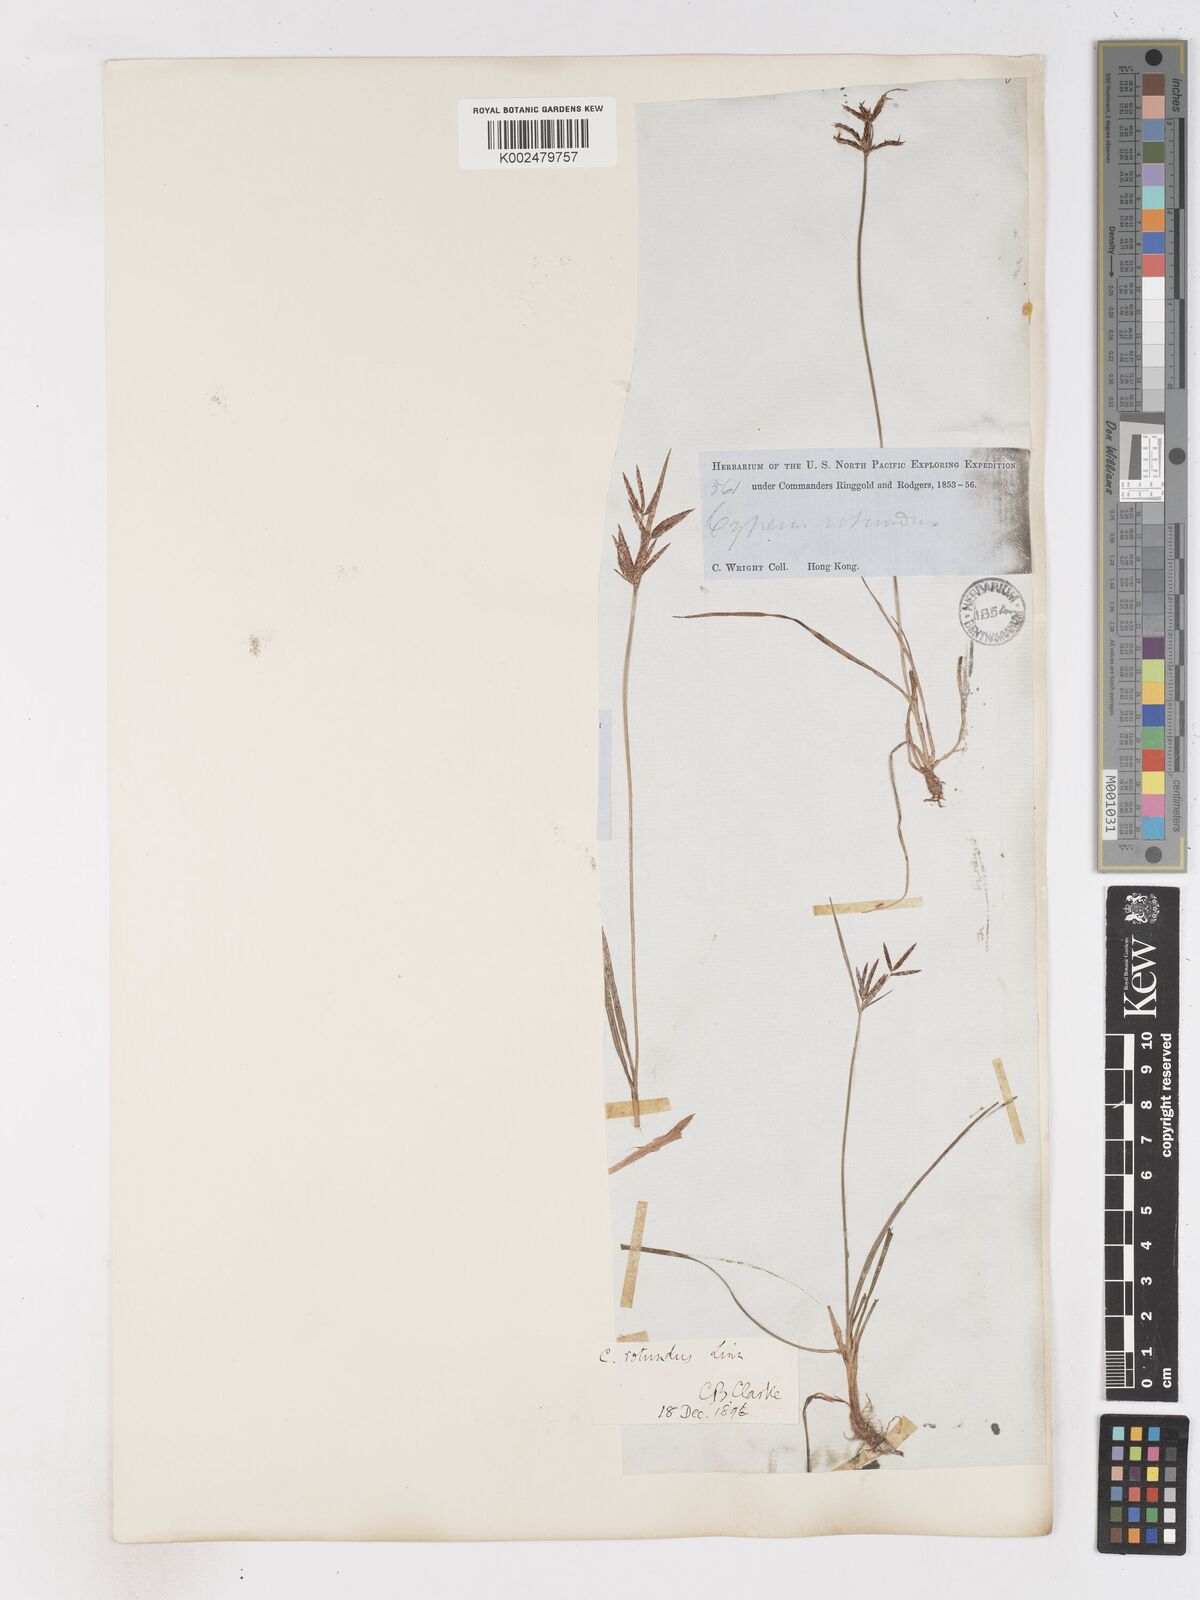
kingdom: Plantae
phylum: Tracheophyta
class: Liliopsida
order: Poales
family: Cyperaceae
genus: Cyperus
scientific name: Cyperus rotundus
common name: Nutgrass
